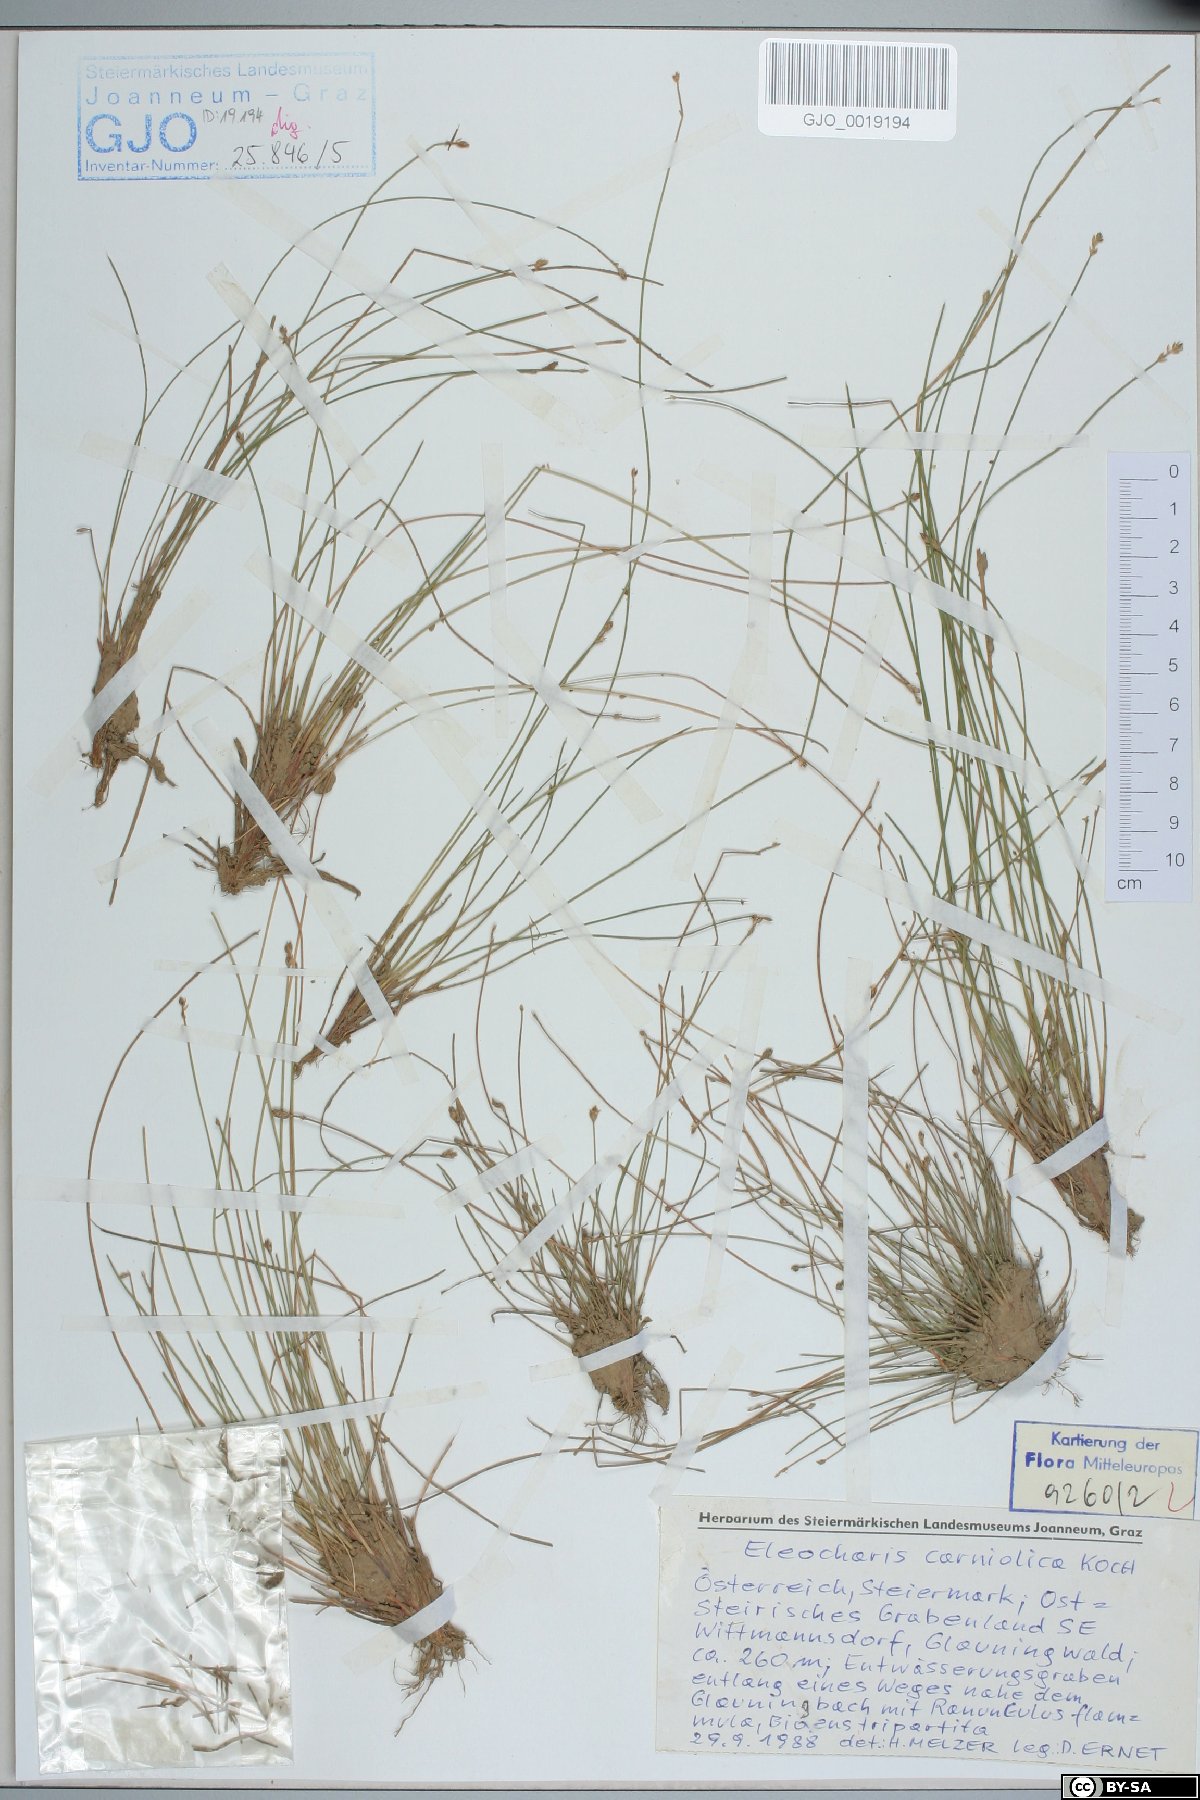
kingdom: Plantae
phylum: Tracheophyta
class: Liliopsida
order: Poales
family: Cyperaceae
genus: Eleocharis
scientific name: Eleocharis carniolica
